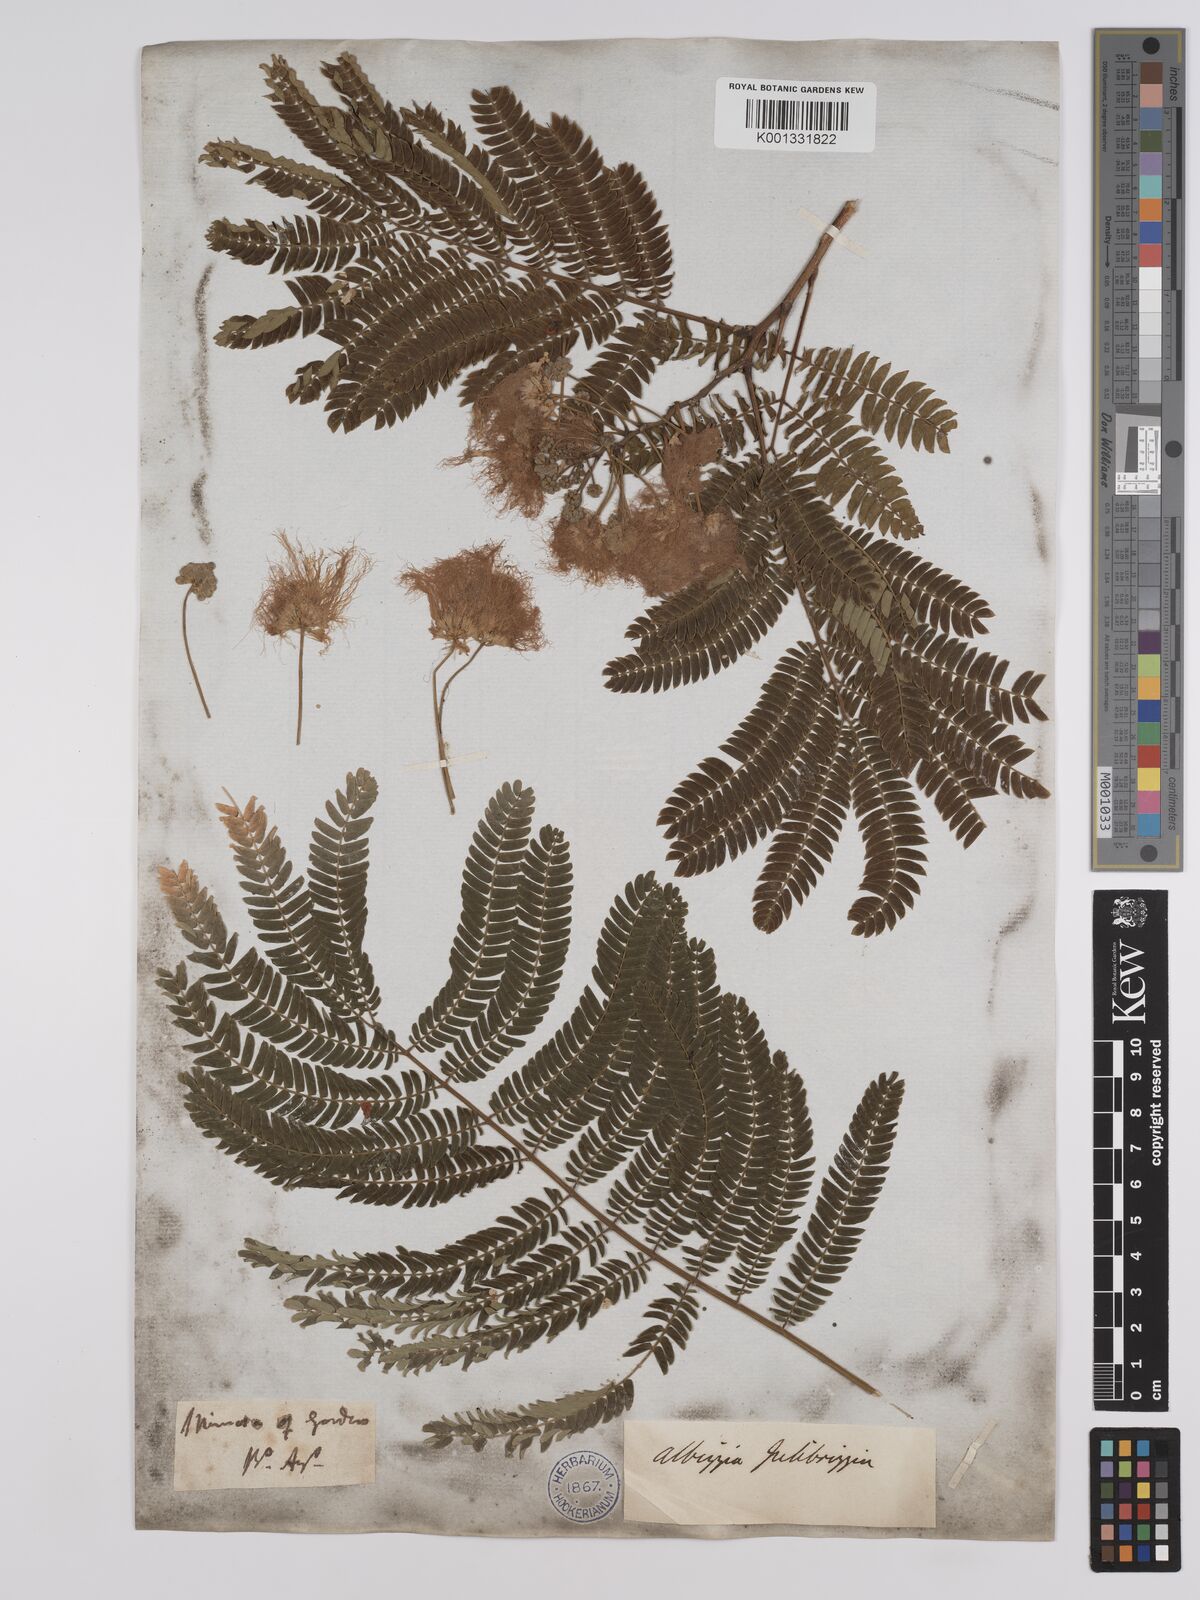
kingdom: Plantae
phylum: Tracheophyta
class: Magnoliopsida
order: Fabales
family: Fabaceae
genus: Albizia
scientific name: Albizia julibrissin
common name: Silktree
